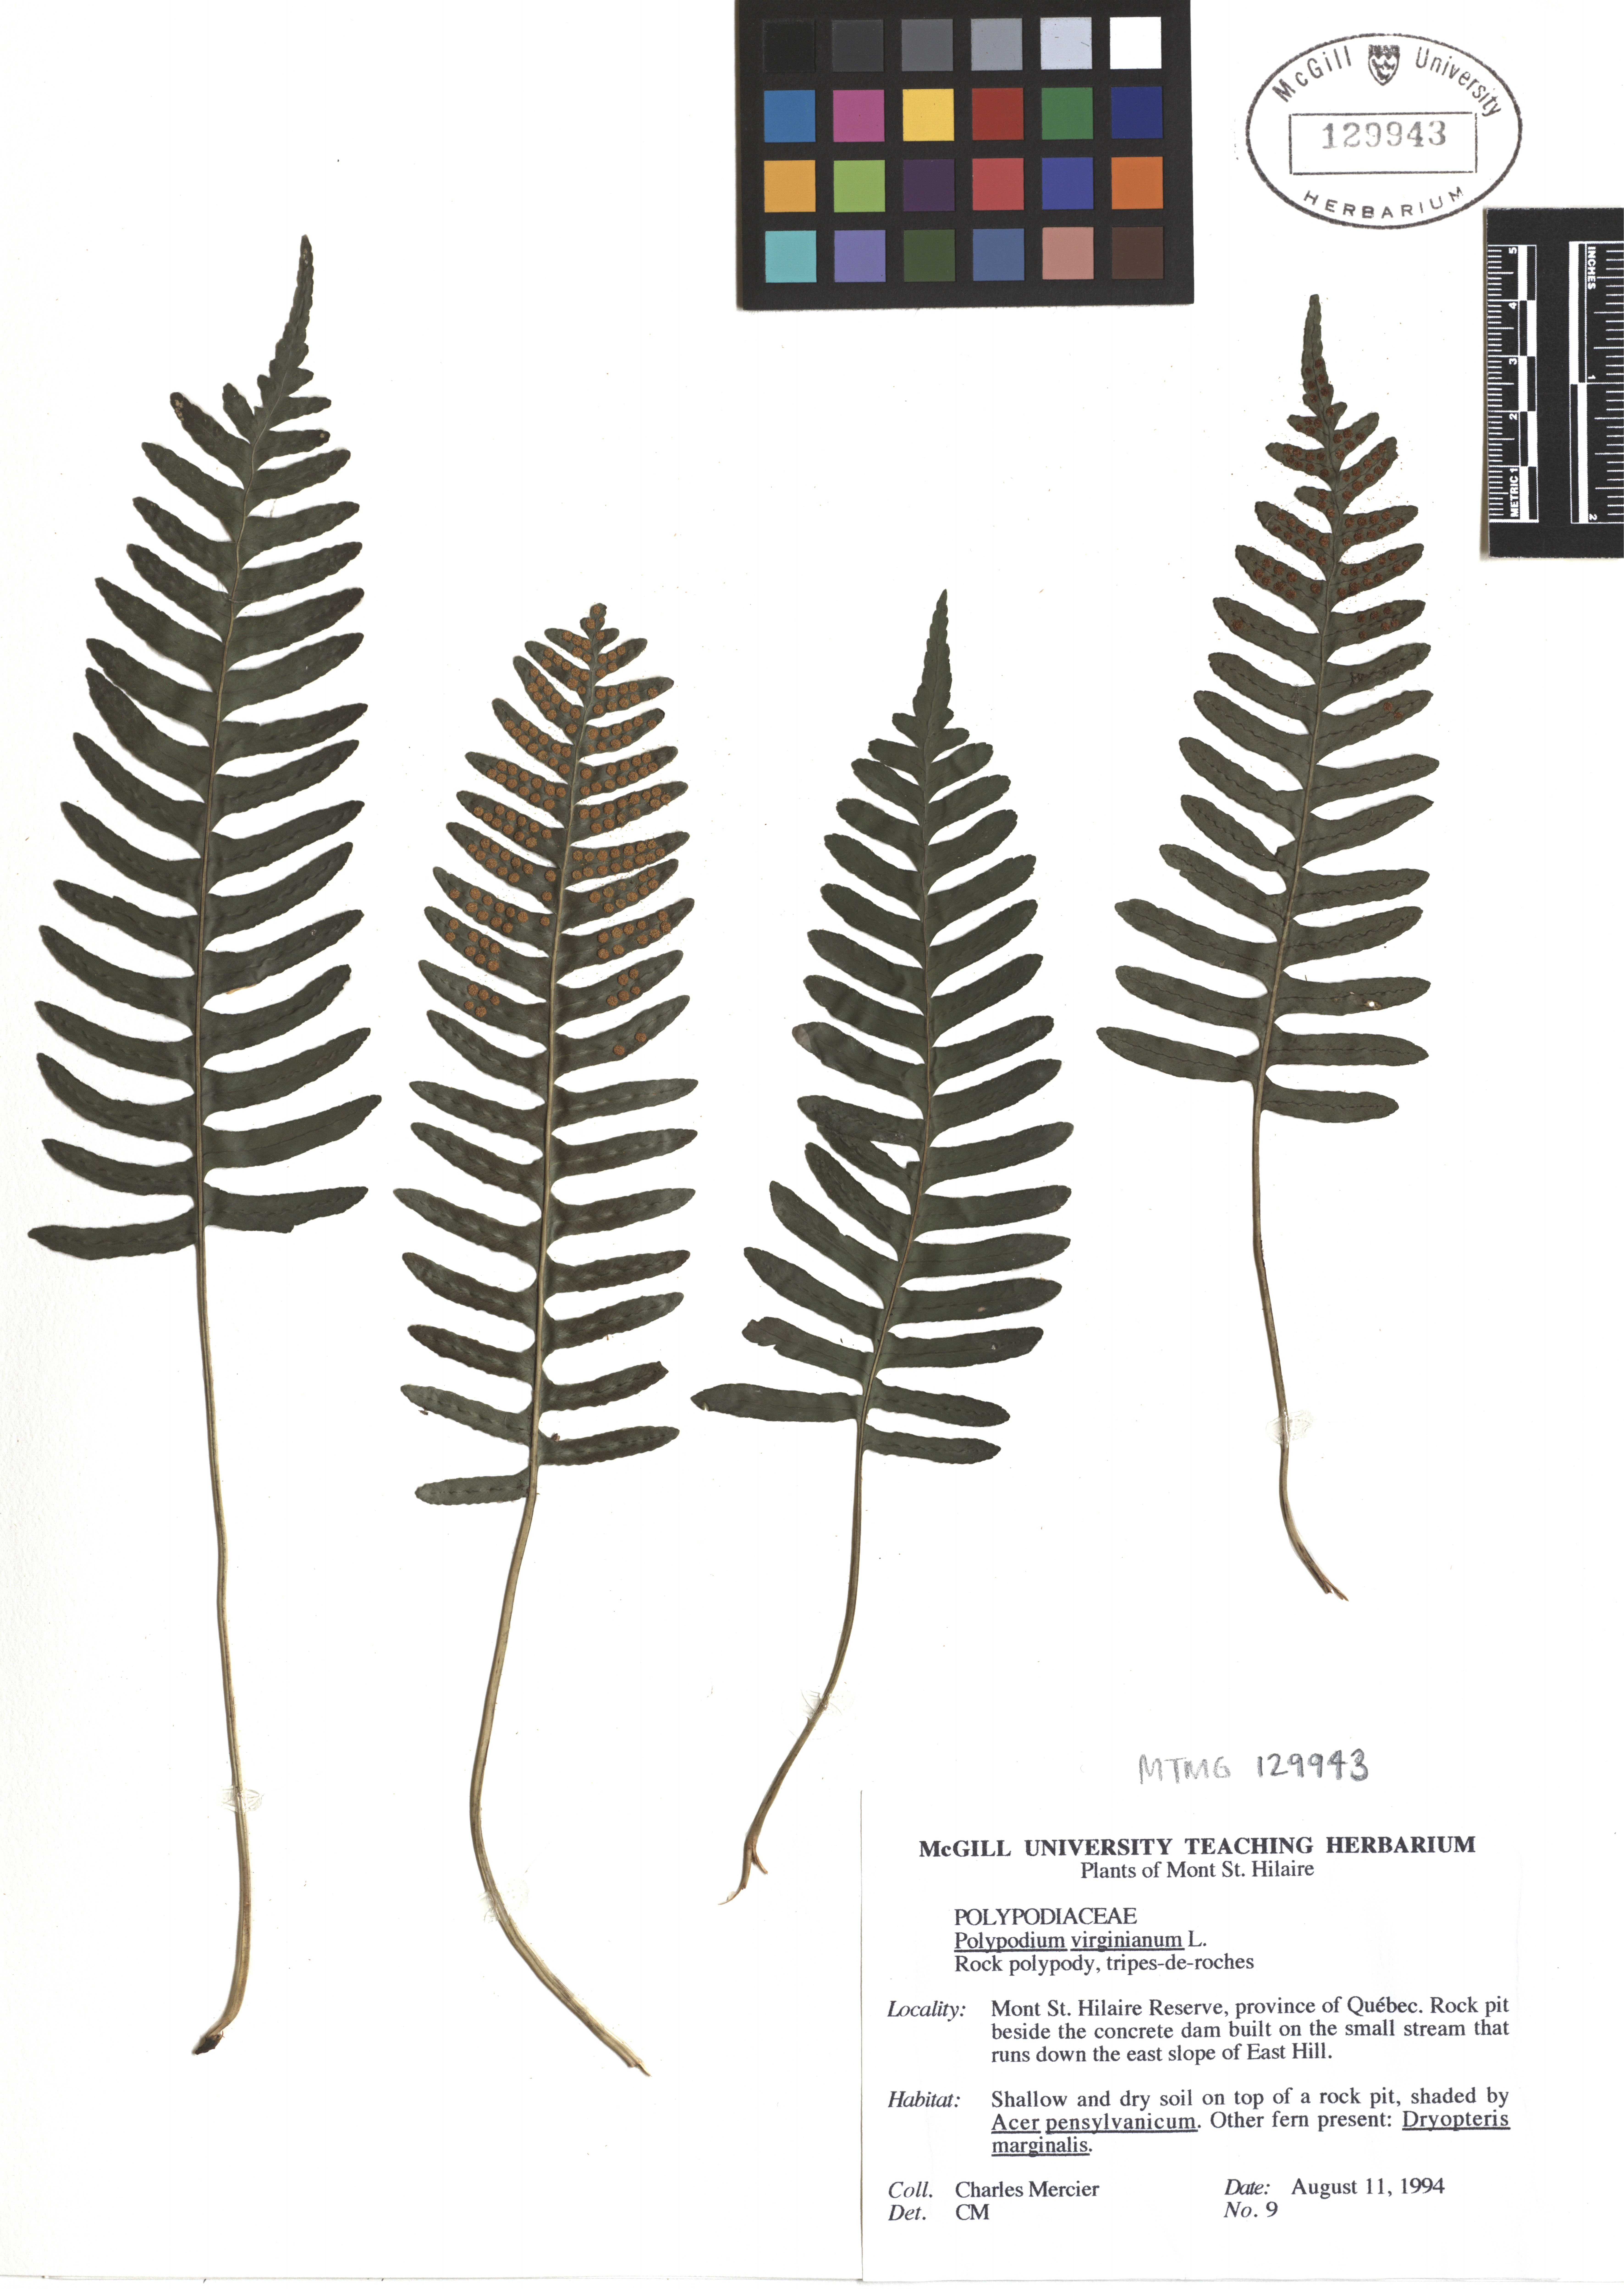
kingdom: Plantae
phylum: Tracheophyta
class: Polypodiopsida
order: Polypodiales
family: Polypodiaceae
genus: Polypodium
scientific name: Polypodium virginianum
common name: American wall fern
